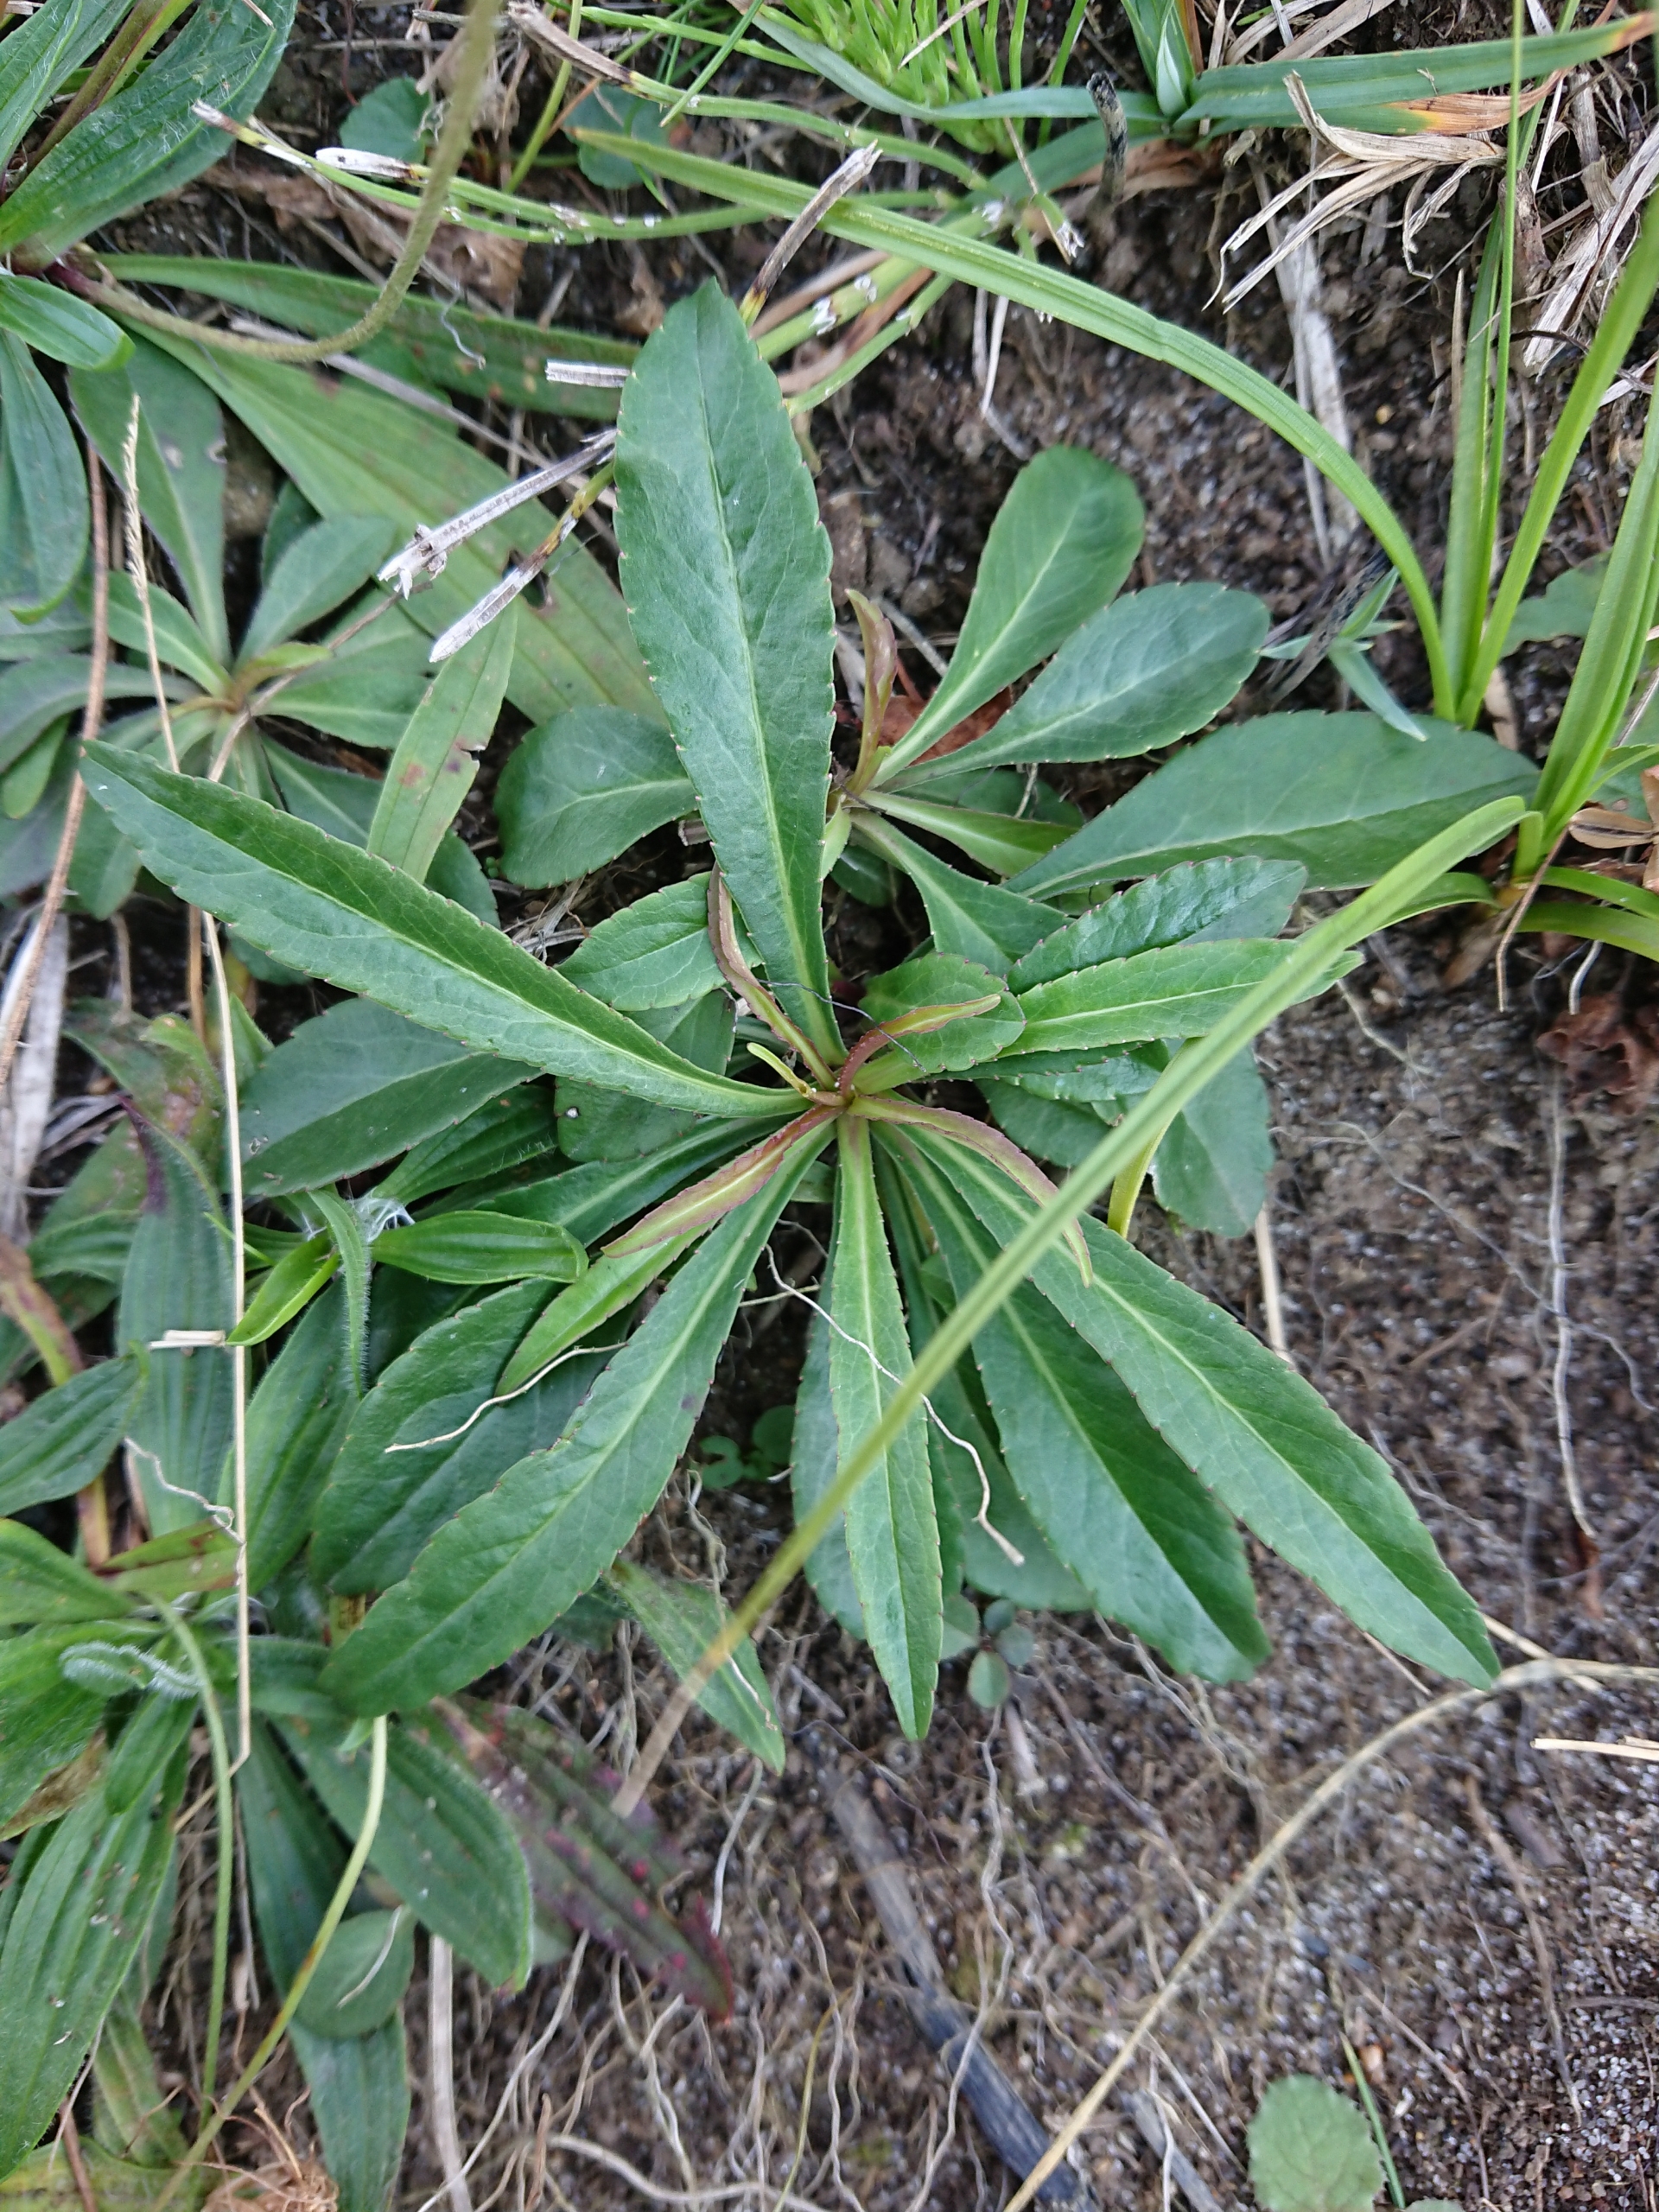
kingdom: Plantae
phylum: Tracheophyta
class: Magnoliopsida
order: Asterales
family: Campanulaceae
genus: Campanula
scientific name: Campanula persicifolia
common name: Smalbladet klokke
